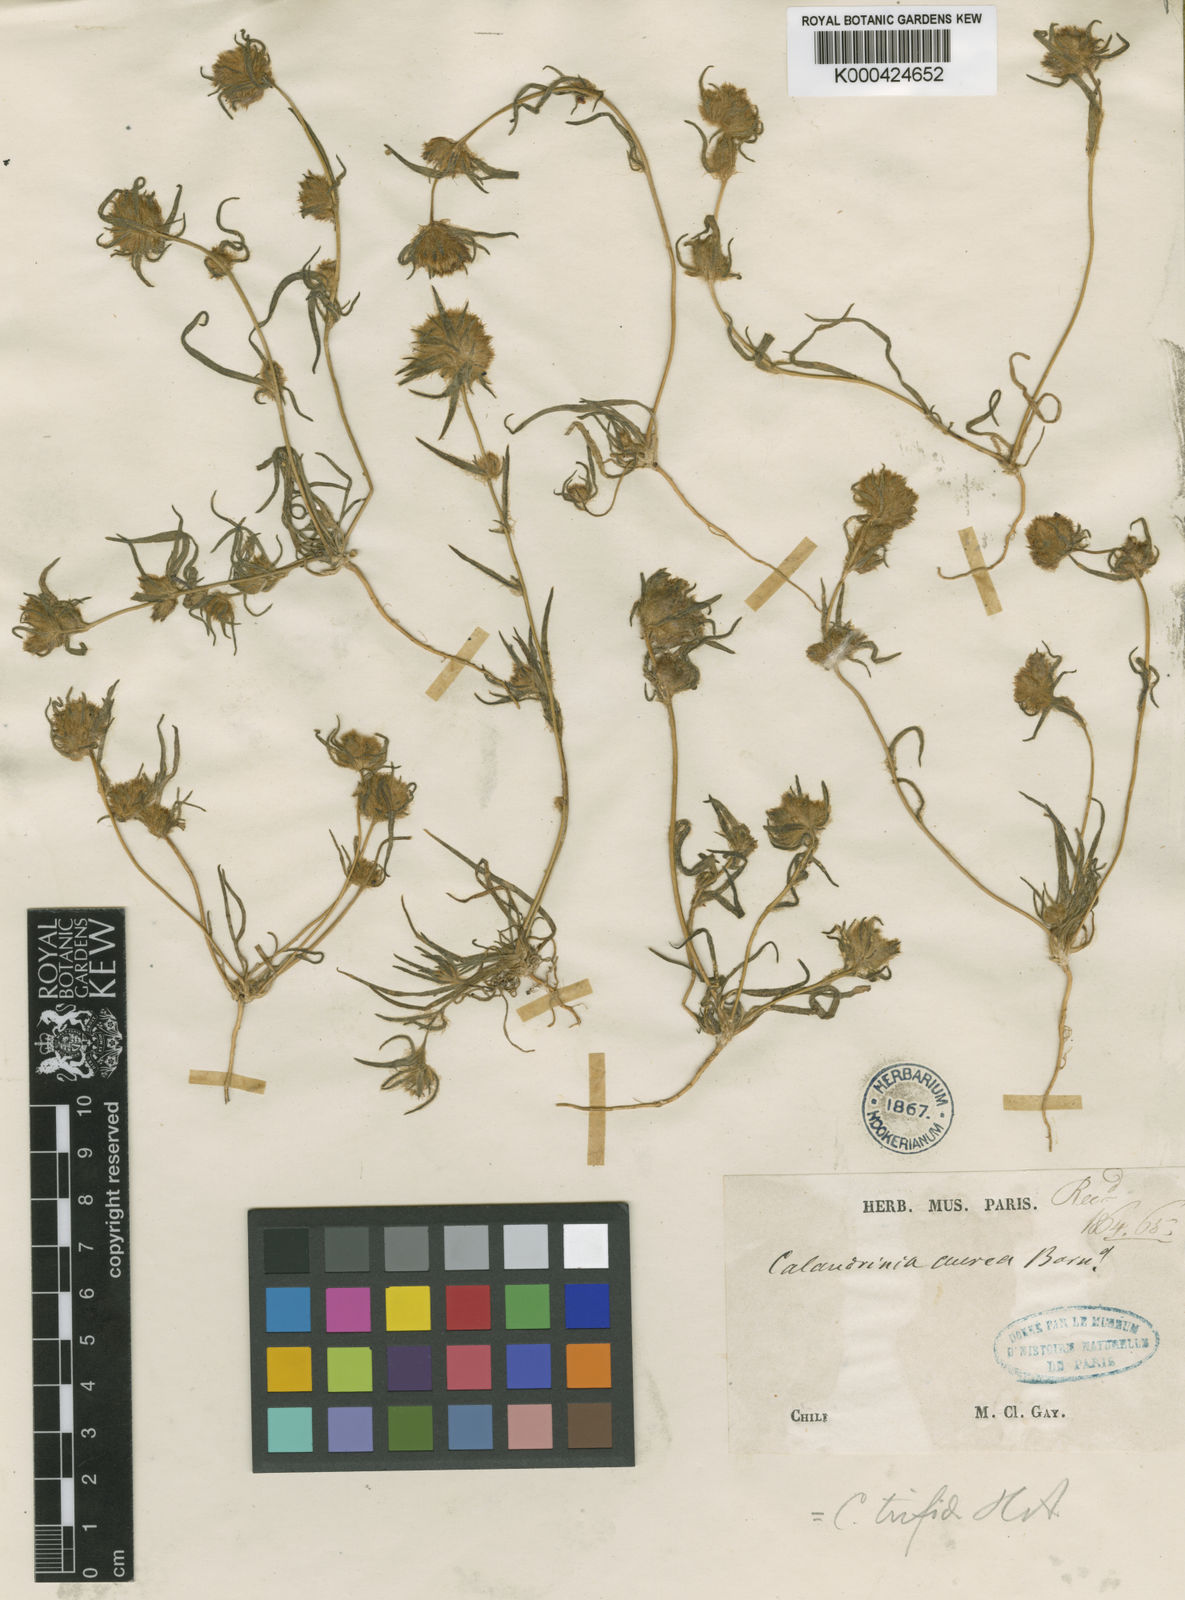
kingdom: Plantae
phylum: Tracheophyta
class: Magnoliopsida
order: Caryophyllales
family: Montiaceae
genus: Montiopsis
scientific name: Montiopsis capitata
